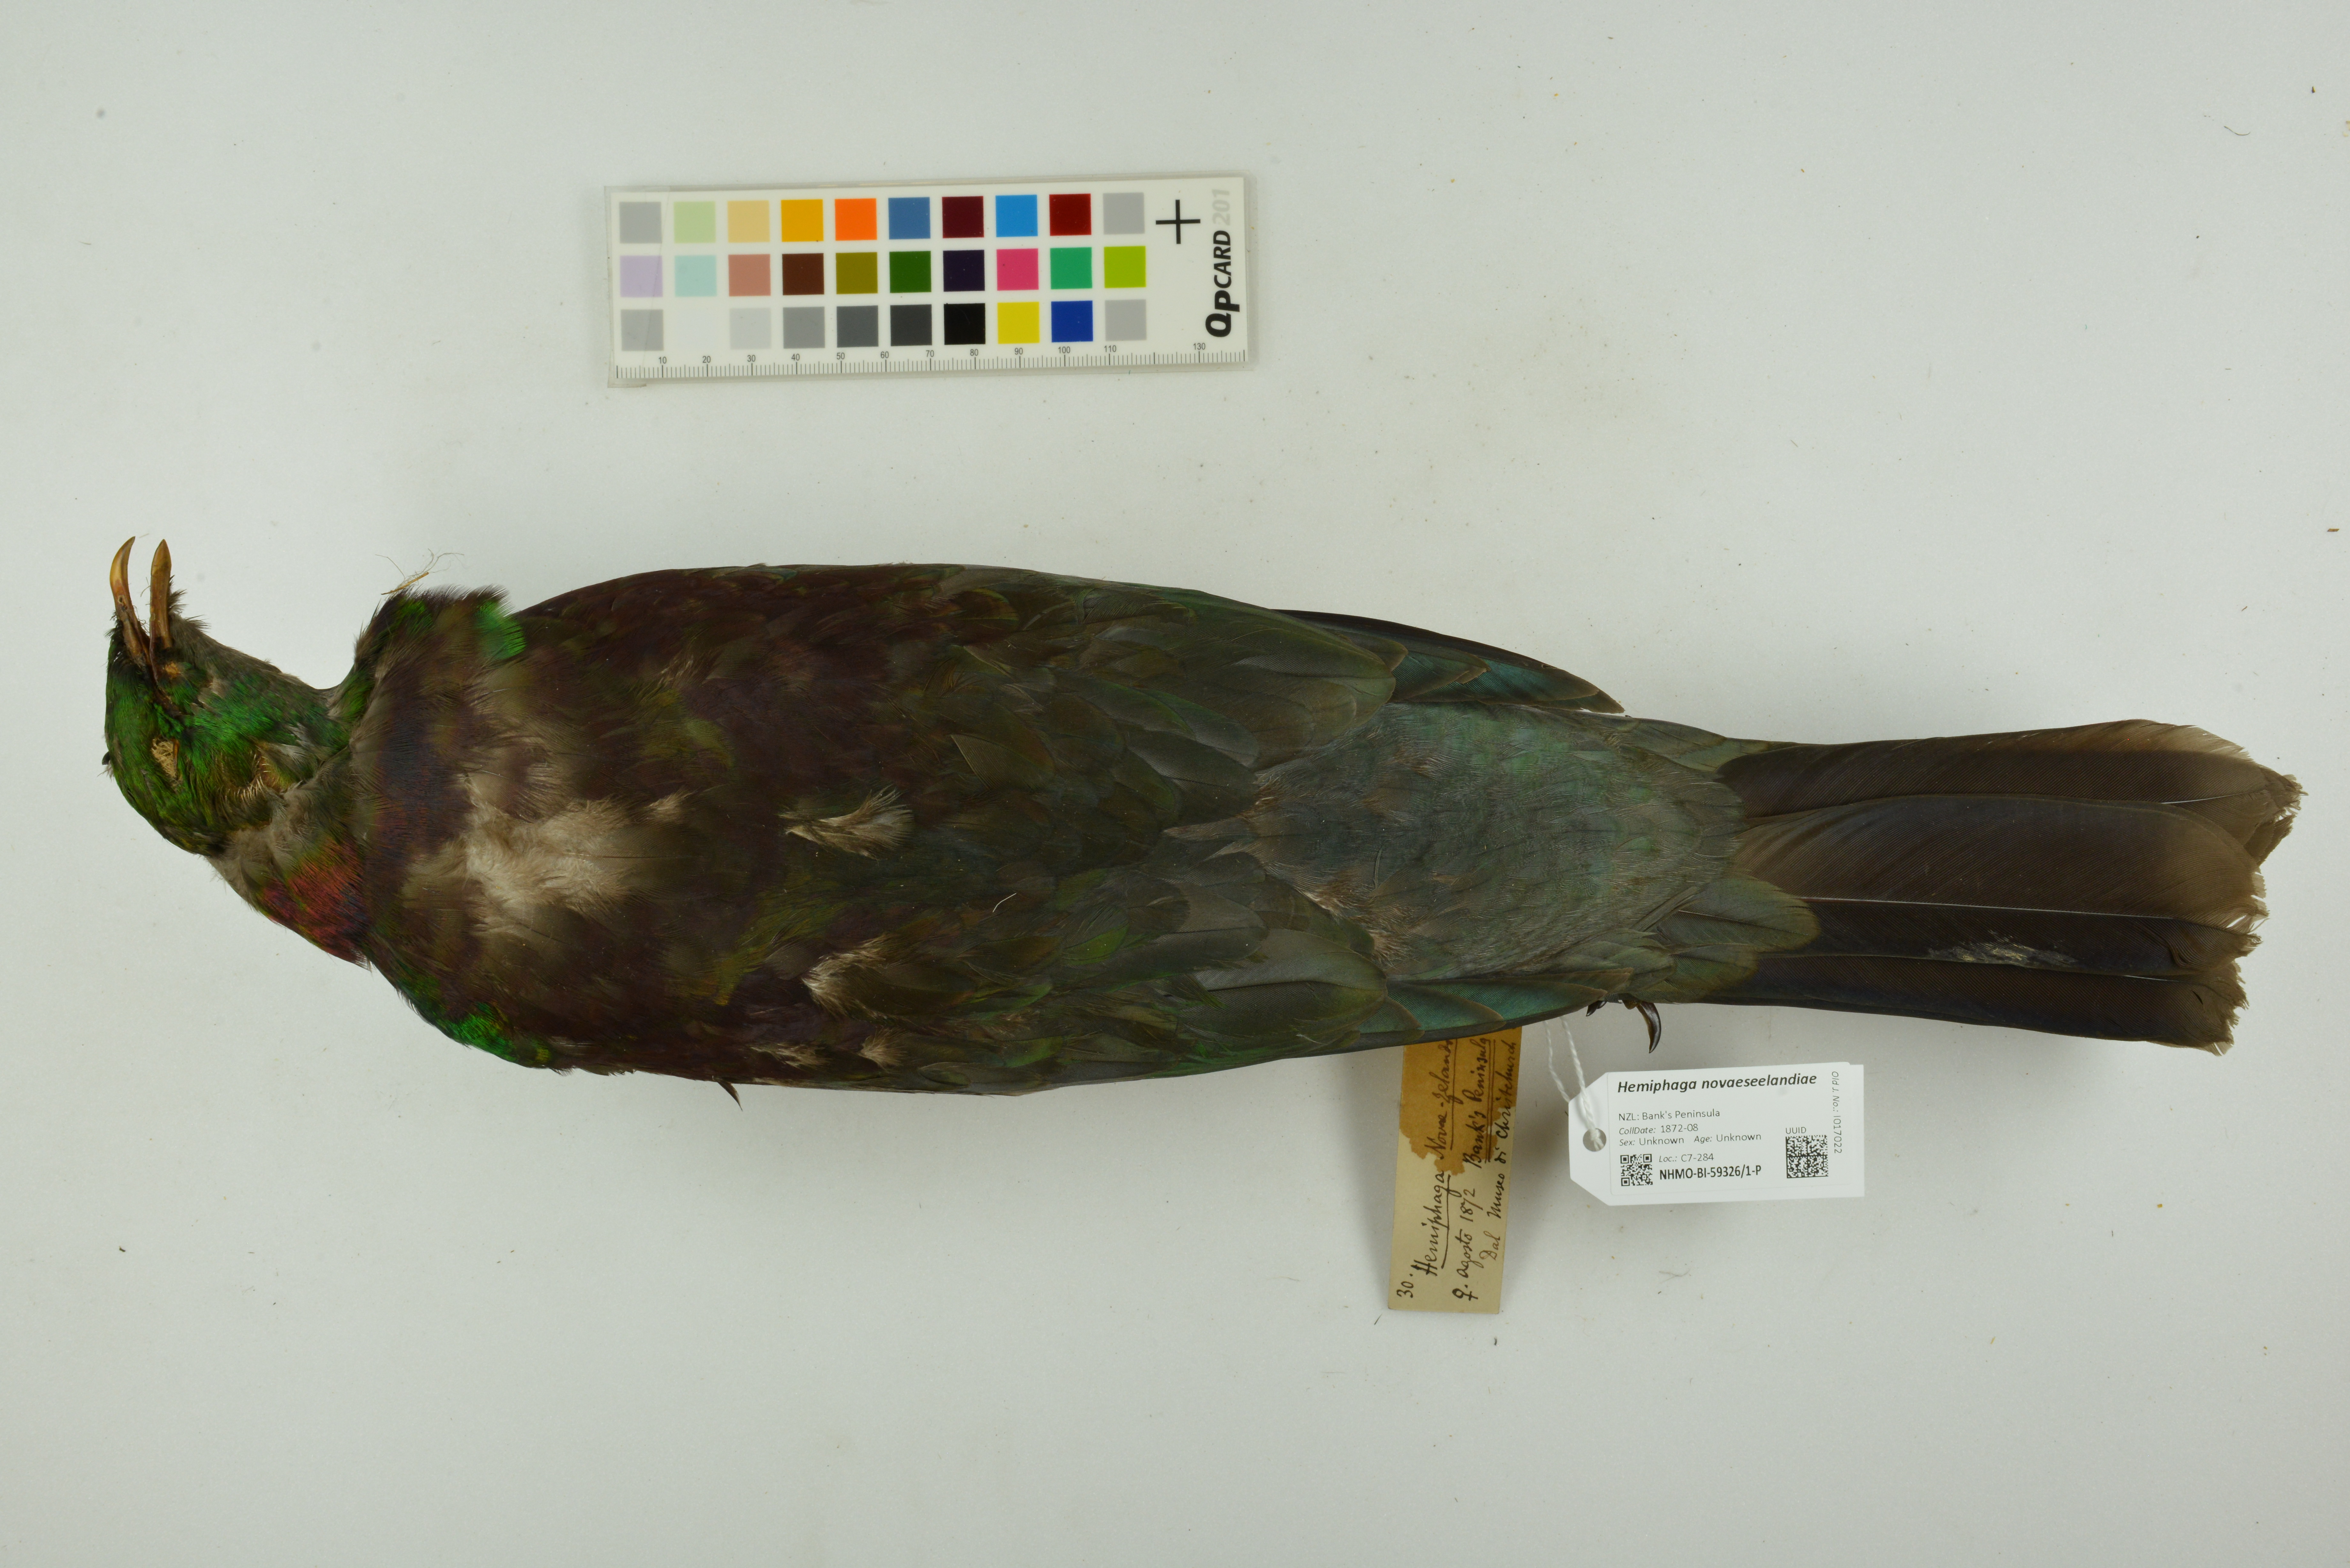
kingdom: Animalia
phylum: Chordata
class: Aves
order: Columbiformes
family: Columbidae
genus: Hemiphaga
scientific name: Hemiphaga novaeseelandiae
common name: New zealand pigeon
